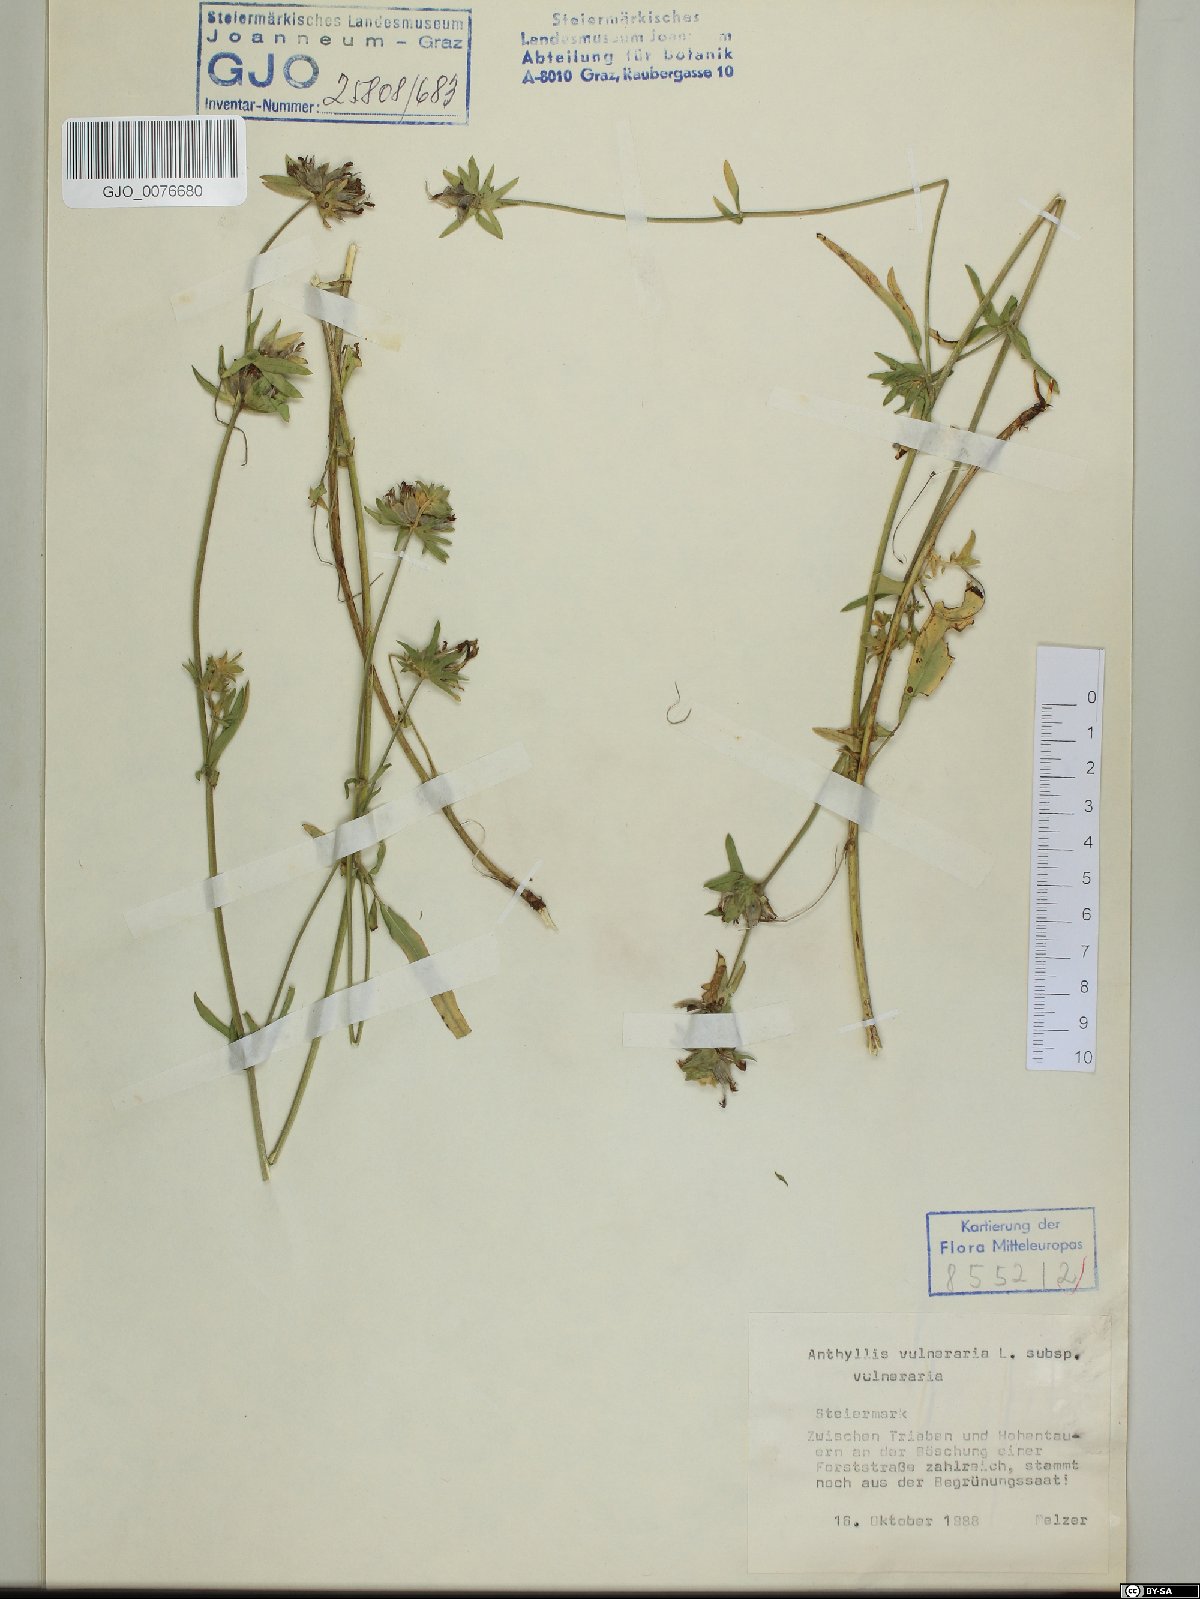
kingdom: Plantae
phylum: Tracheophyta
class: Magnoliopsida
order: Fabales
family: Fabaceae
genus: Anthyllis
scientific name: Anthyllis vulneraria
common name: Kidney vetch
